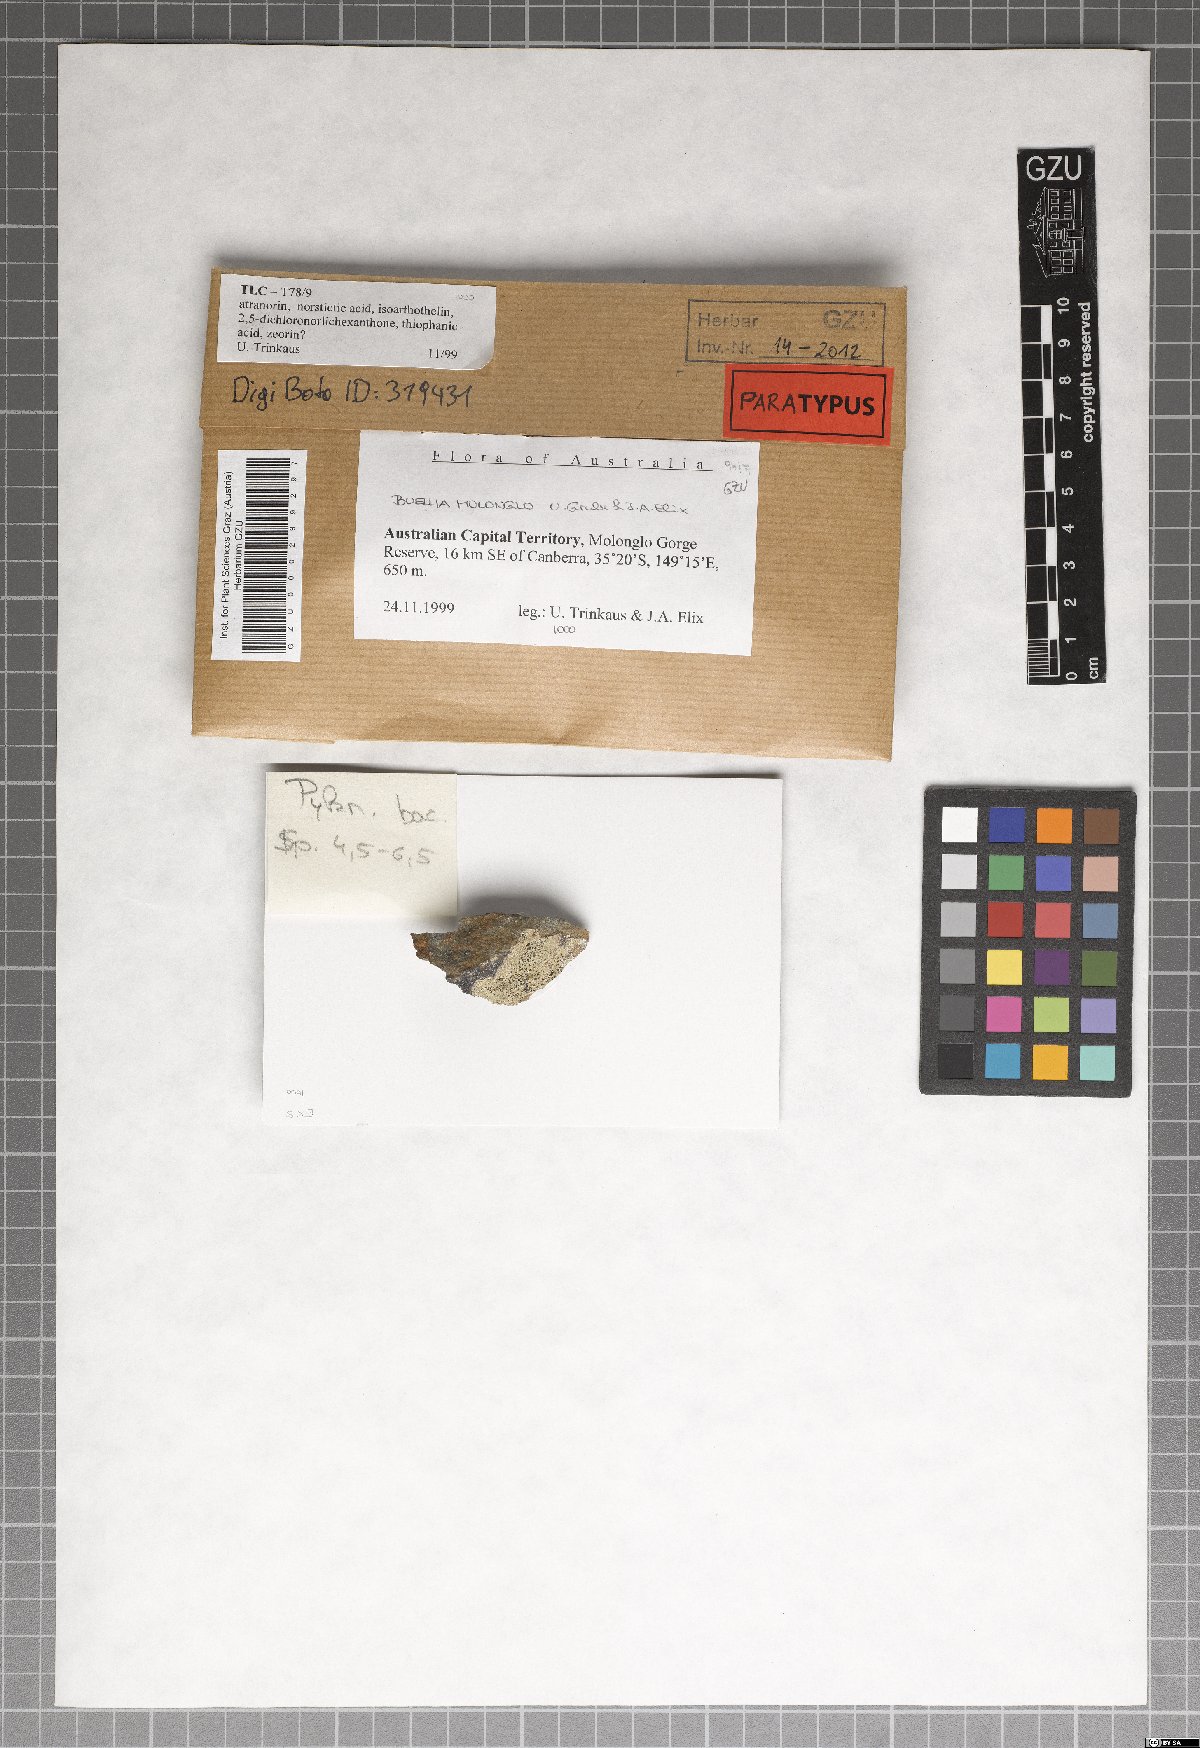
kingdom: Fungi
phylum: Ascomycota
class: Lecanoromycetes
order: Caliciales
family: Caliciaceae
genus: Buellia
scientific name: Buellia molonglo
